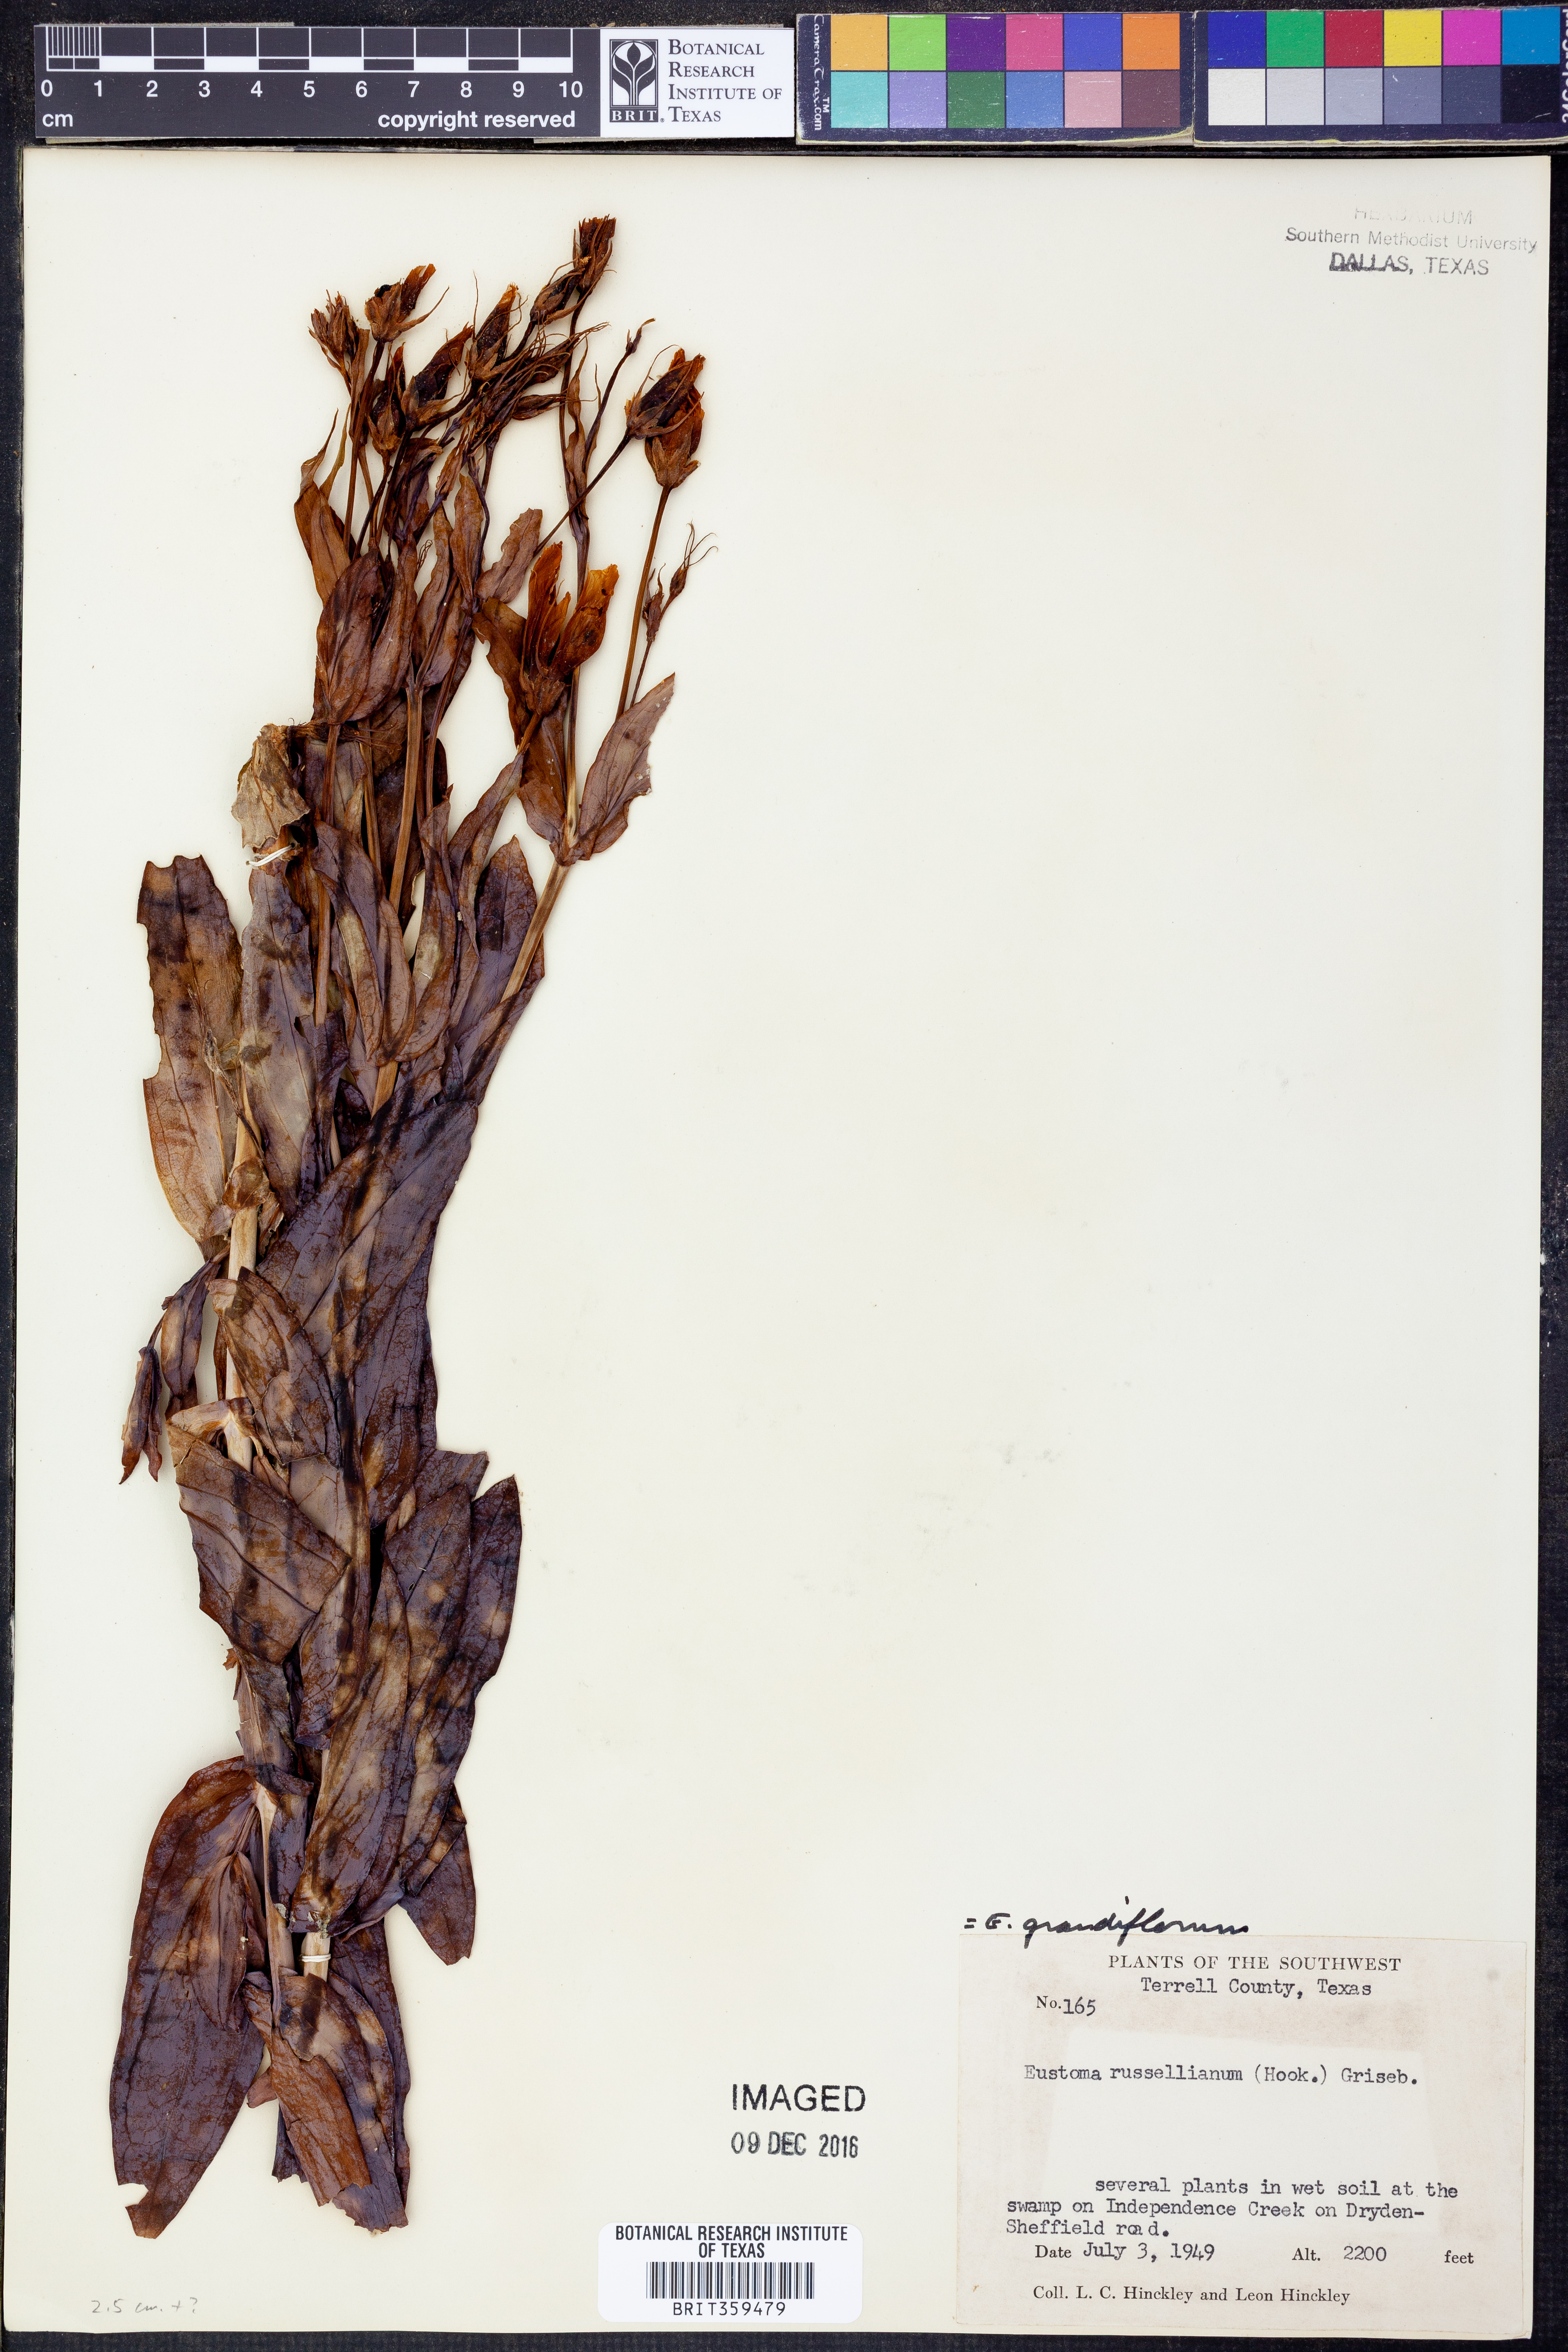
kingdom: Plantae
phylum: Tracheophyta
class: Magnoliopsida
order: Gentianales
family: Gentianaceae
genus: Eustoma
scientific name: Eustoma russellianum
